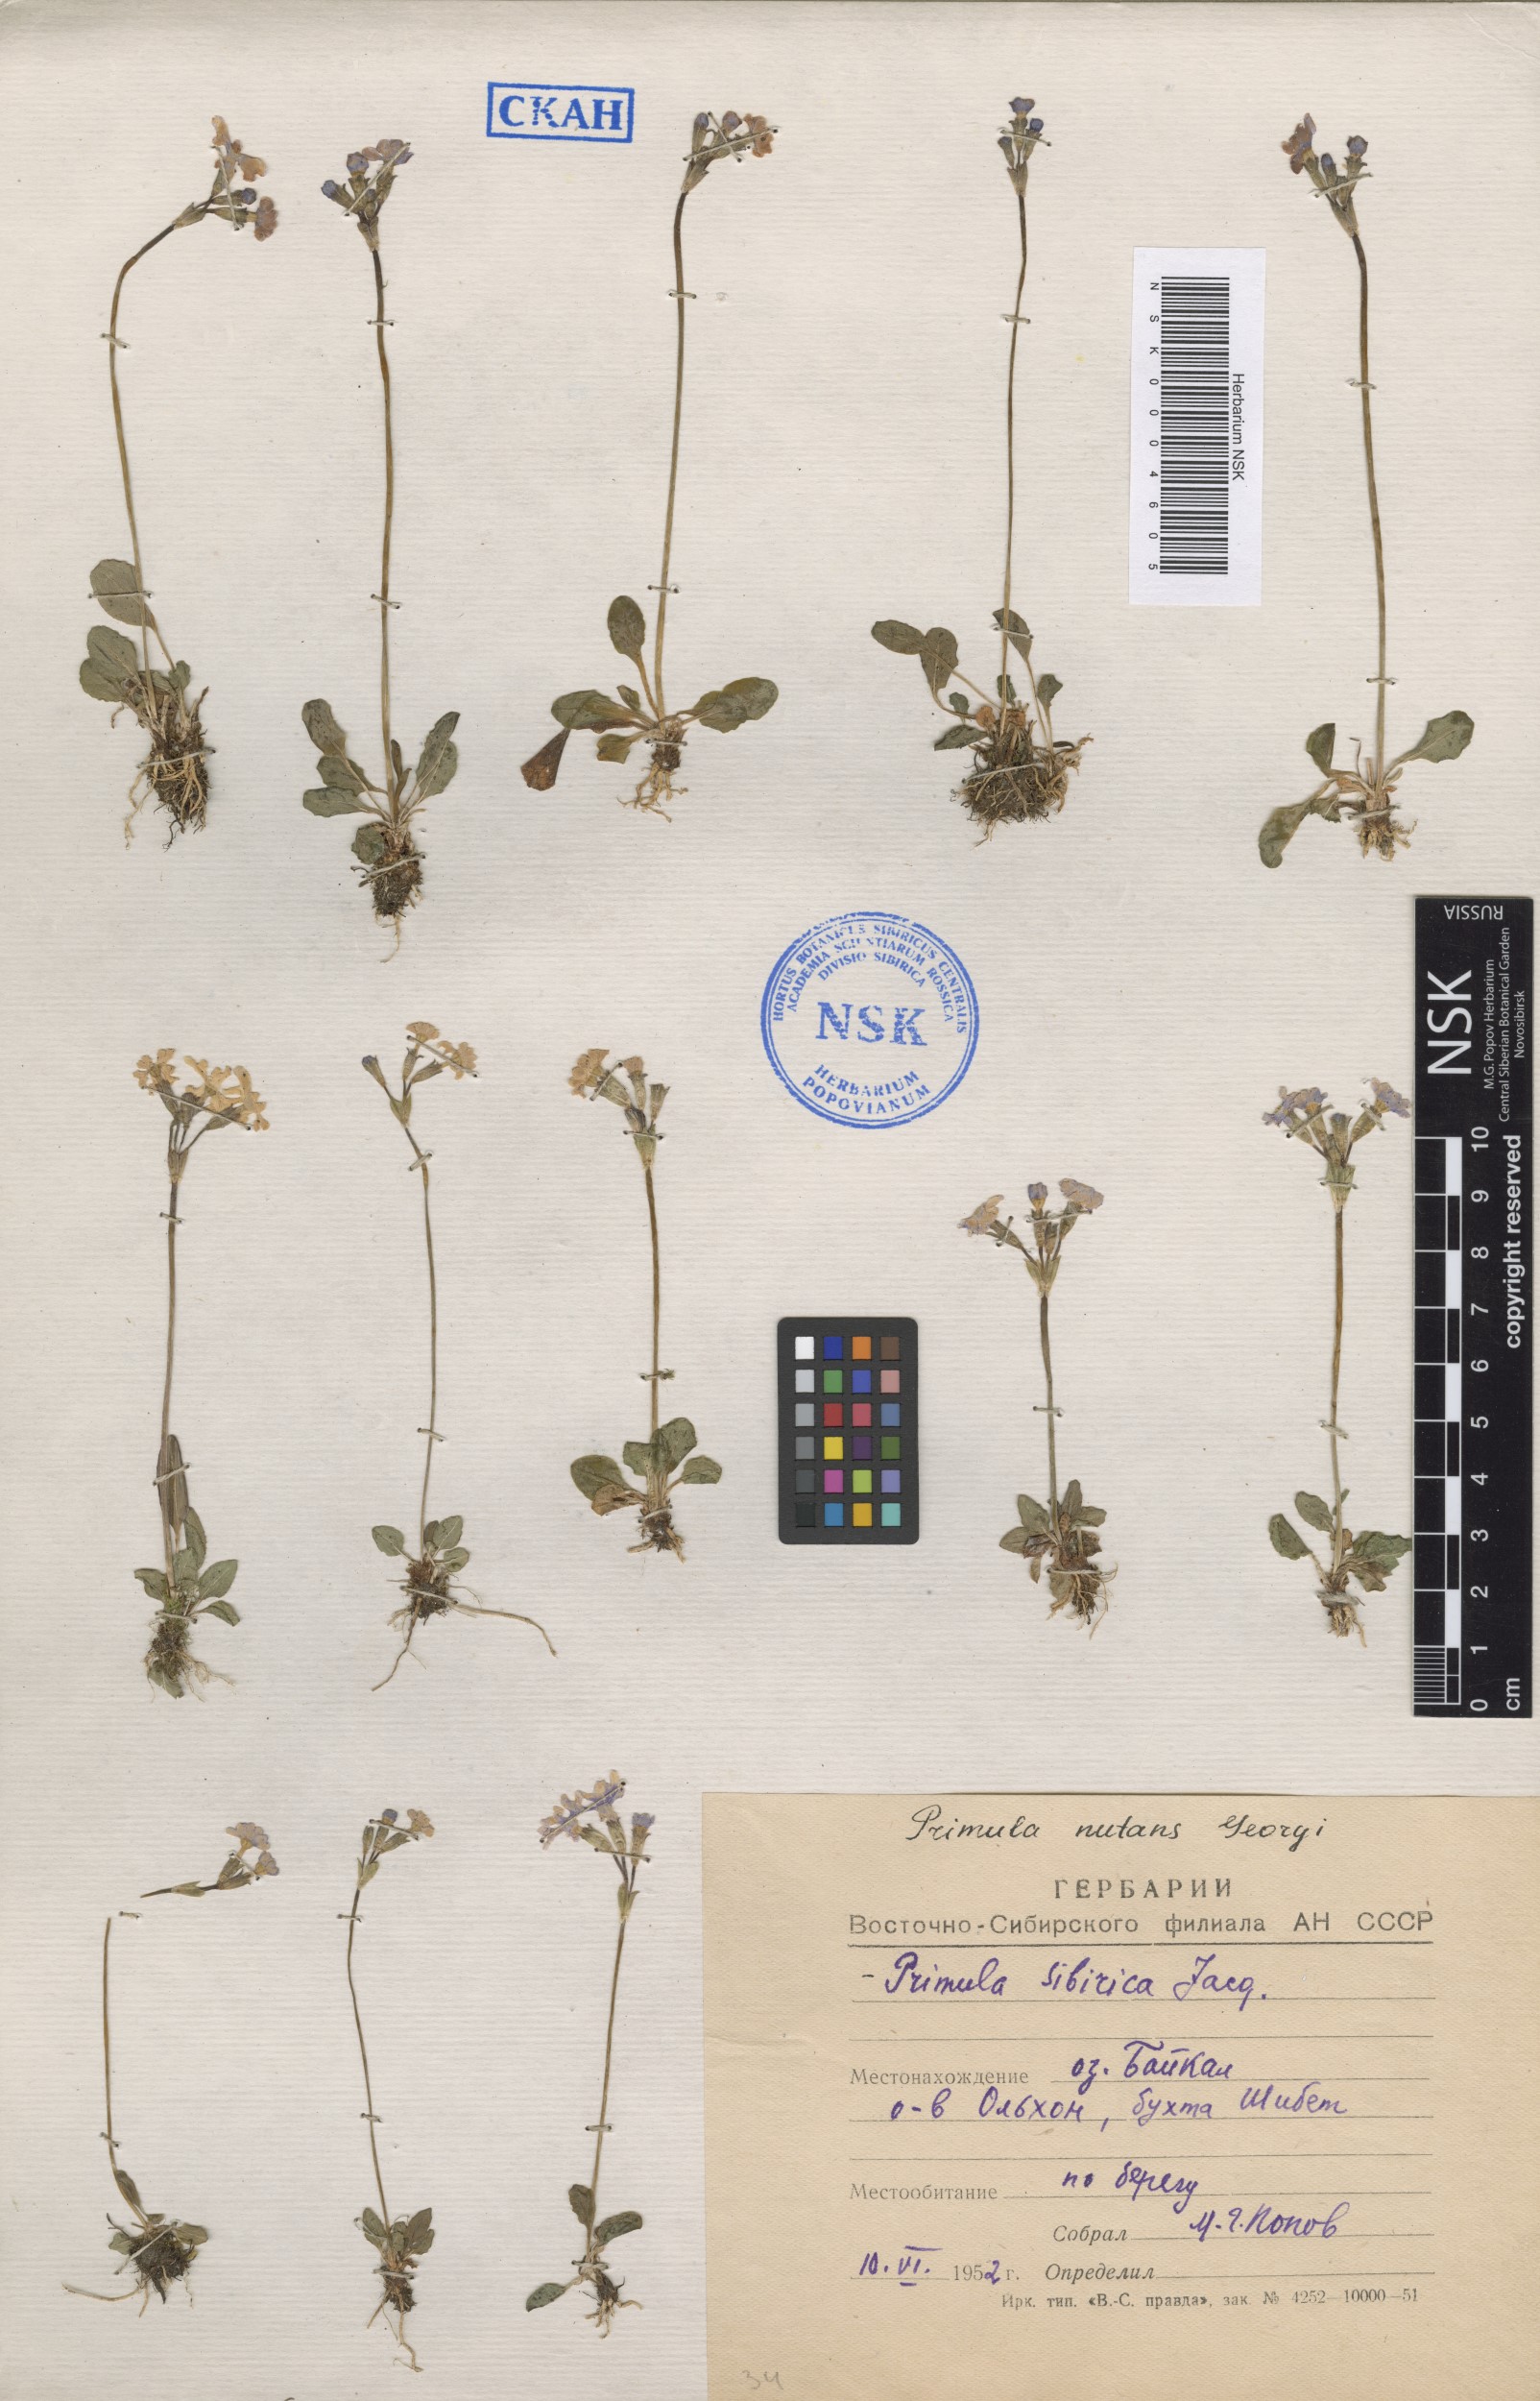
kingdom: Plantae
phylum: Tracheophyta
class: Magnoliopsida
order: Ericales
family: Primulaceae
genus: Primula
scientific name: Primula nutans
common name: Siberian primrose
